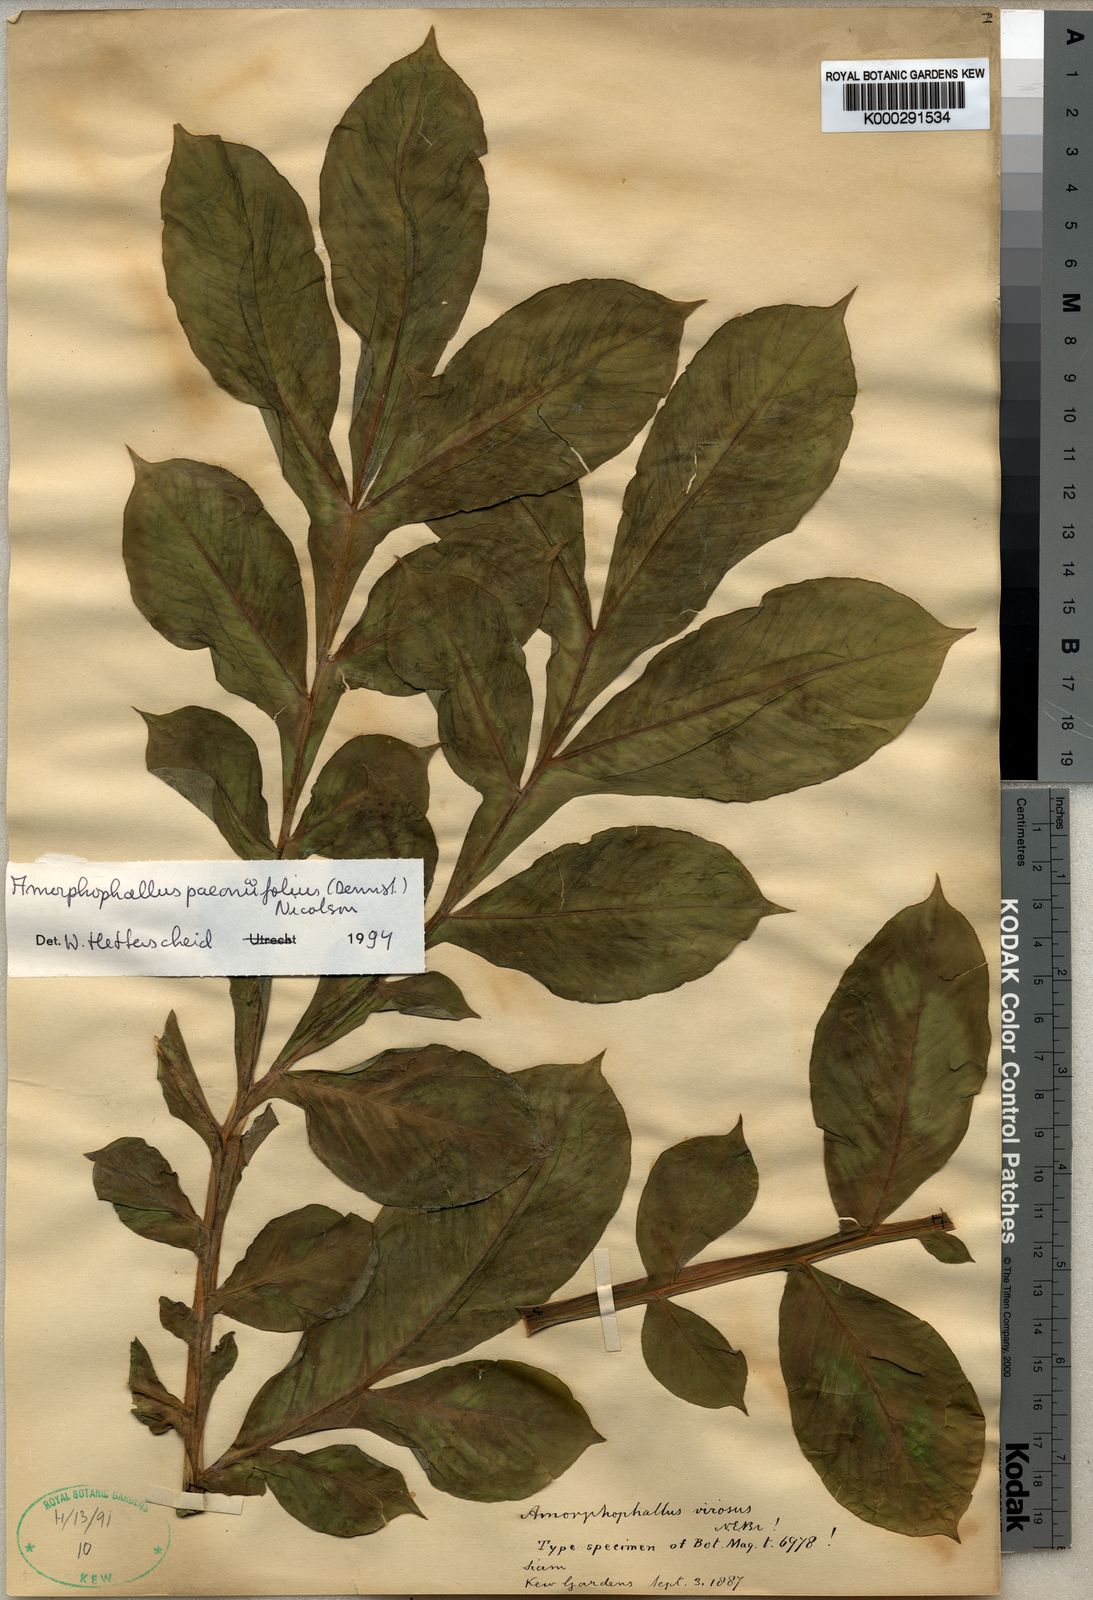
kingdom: Plantae
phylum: Tracheophyta
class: Liliopsida
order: Alismatales
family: Araceae
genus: Amorphophallus
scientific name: Amorphophallus paeoniifolius
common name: Telinga-potato
